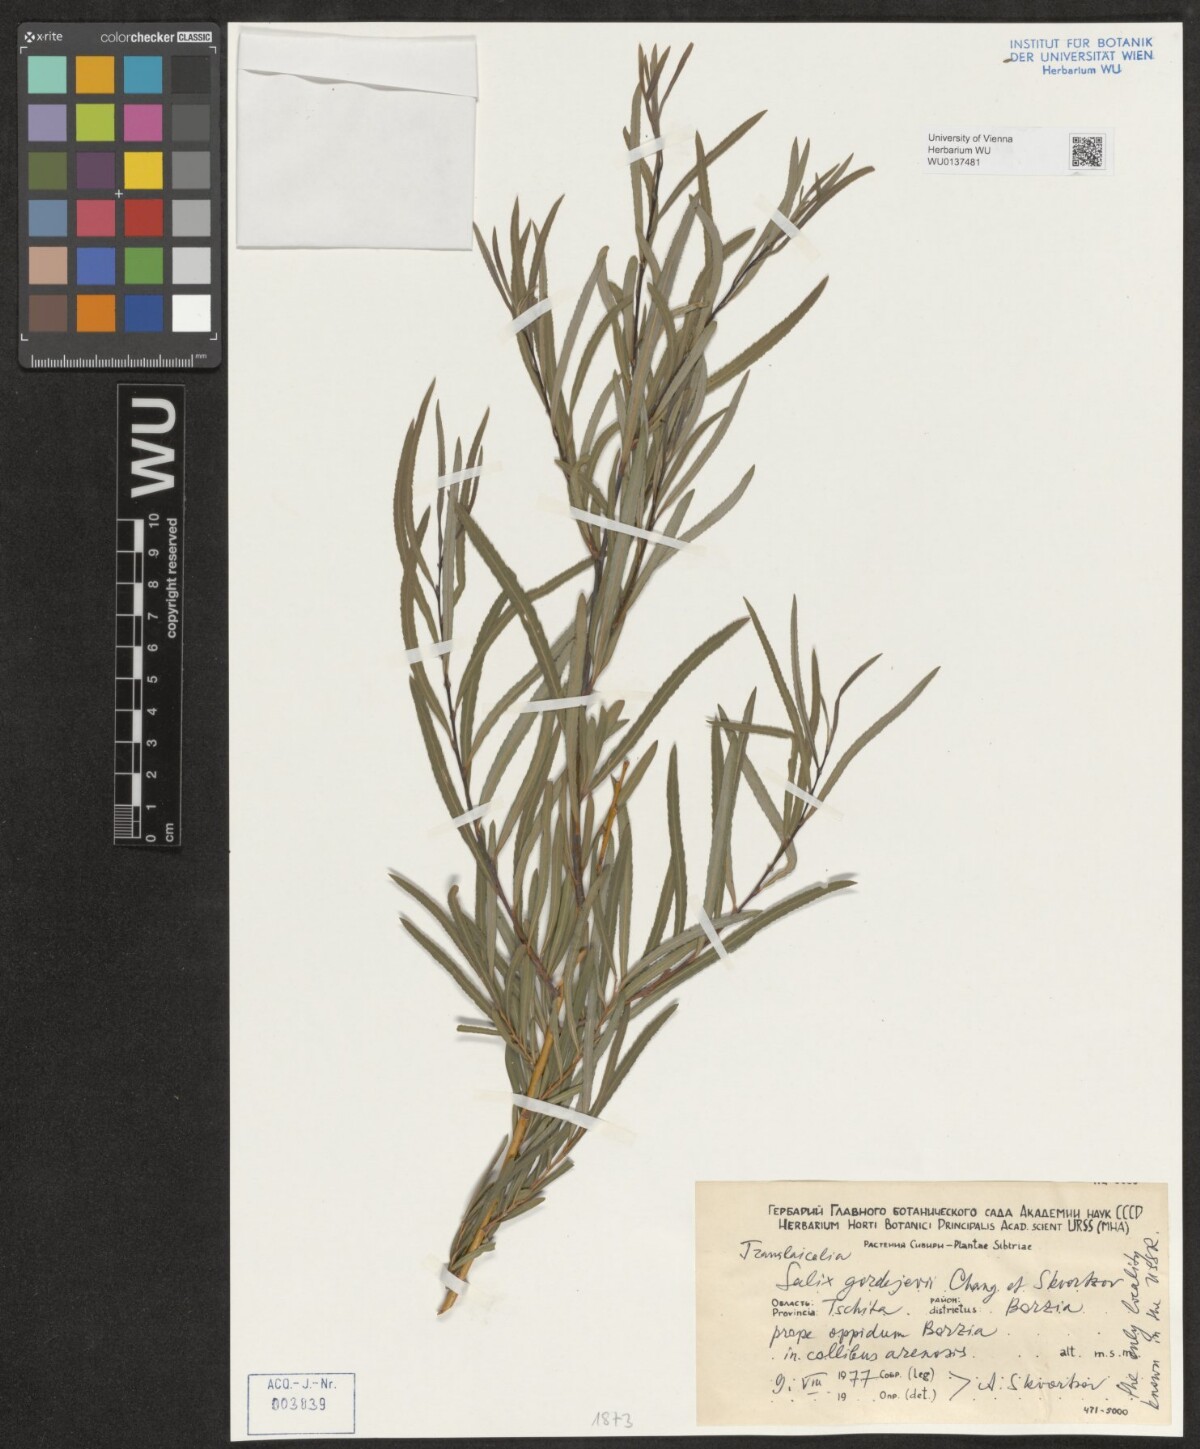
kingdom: Plantae
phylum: Tracheophyta
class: Magnoliopsida
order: Malpighiales
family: Salicaceae
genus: Salix
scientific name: Salix gordejevii
